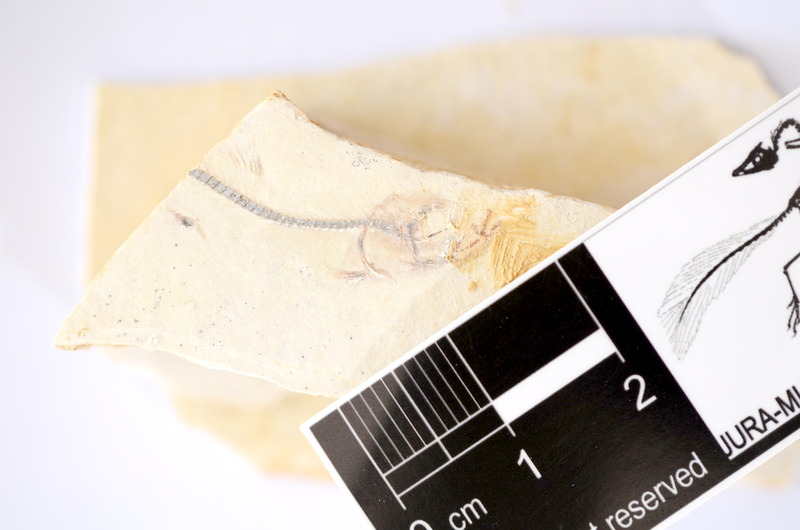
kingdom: Animalia
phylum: Chordata
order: Salmoniformes
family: Orthogonikleithridae
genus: Orthogonikleithrus
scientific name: Orthogonikleithrus hoelli
